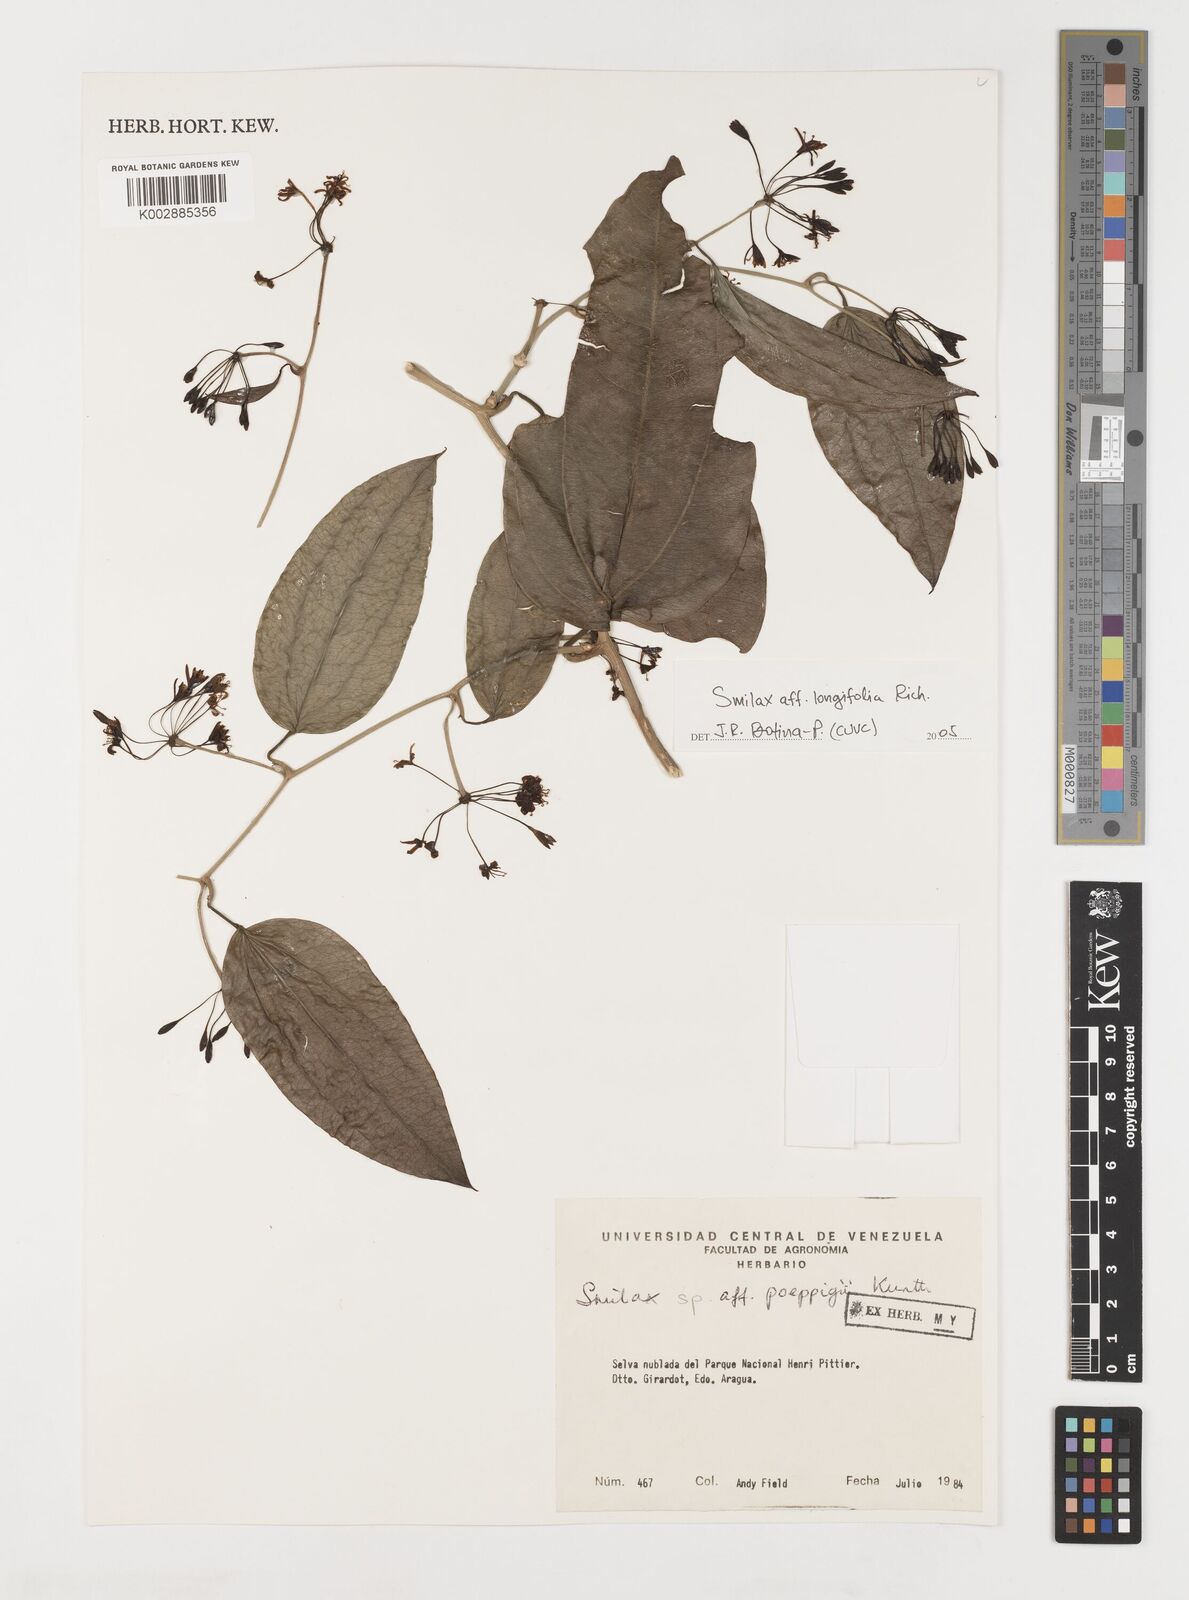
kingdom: Plantae
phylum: Tracheophyta
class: Liliopsida
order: Liliales
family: Smilacaceae
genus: Smilax
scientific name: Smilax longifolia
